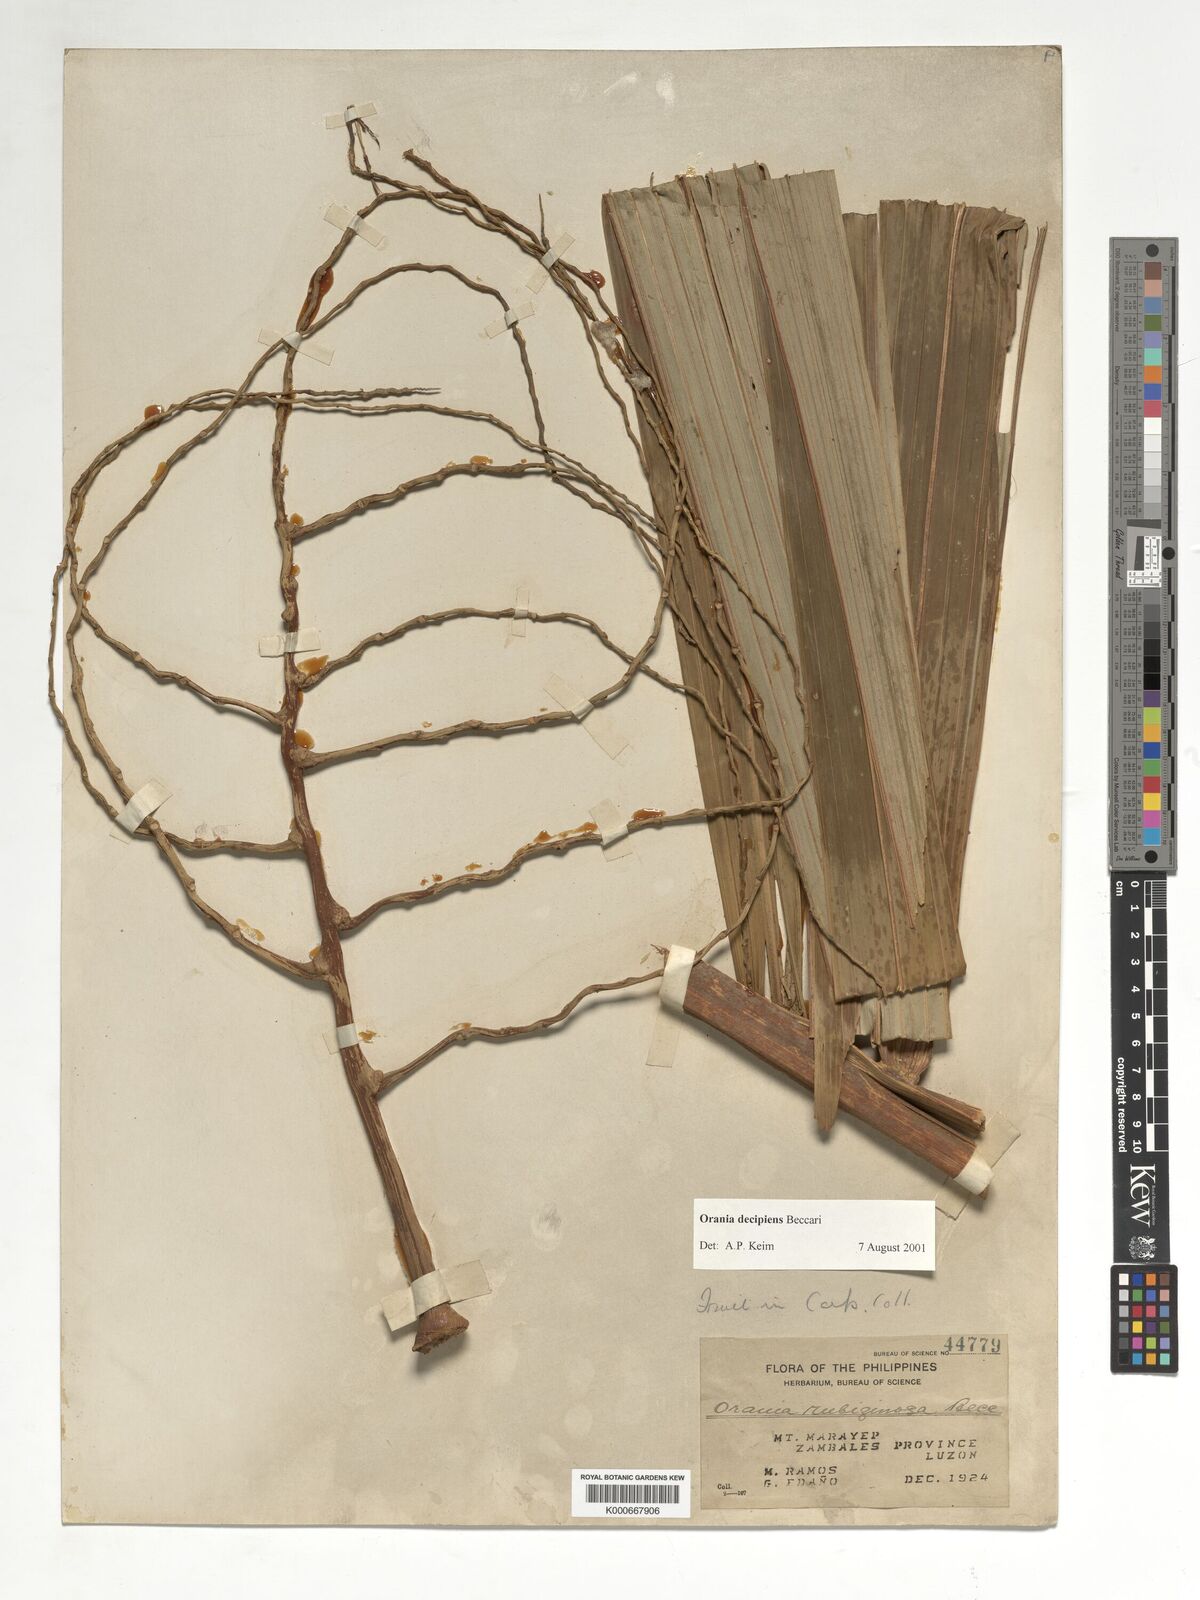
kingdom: Plantae
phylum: Tracheophyta
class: Liliopsida
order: Arecales
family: Arecaceae
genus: Orania
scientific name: Orania decipiens
